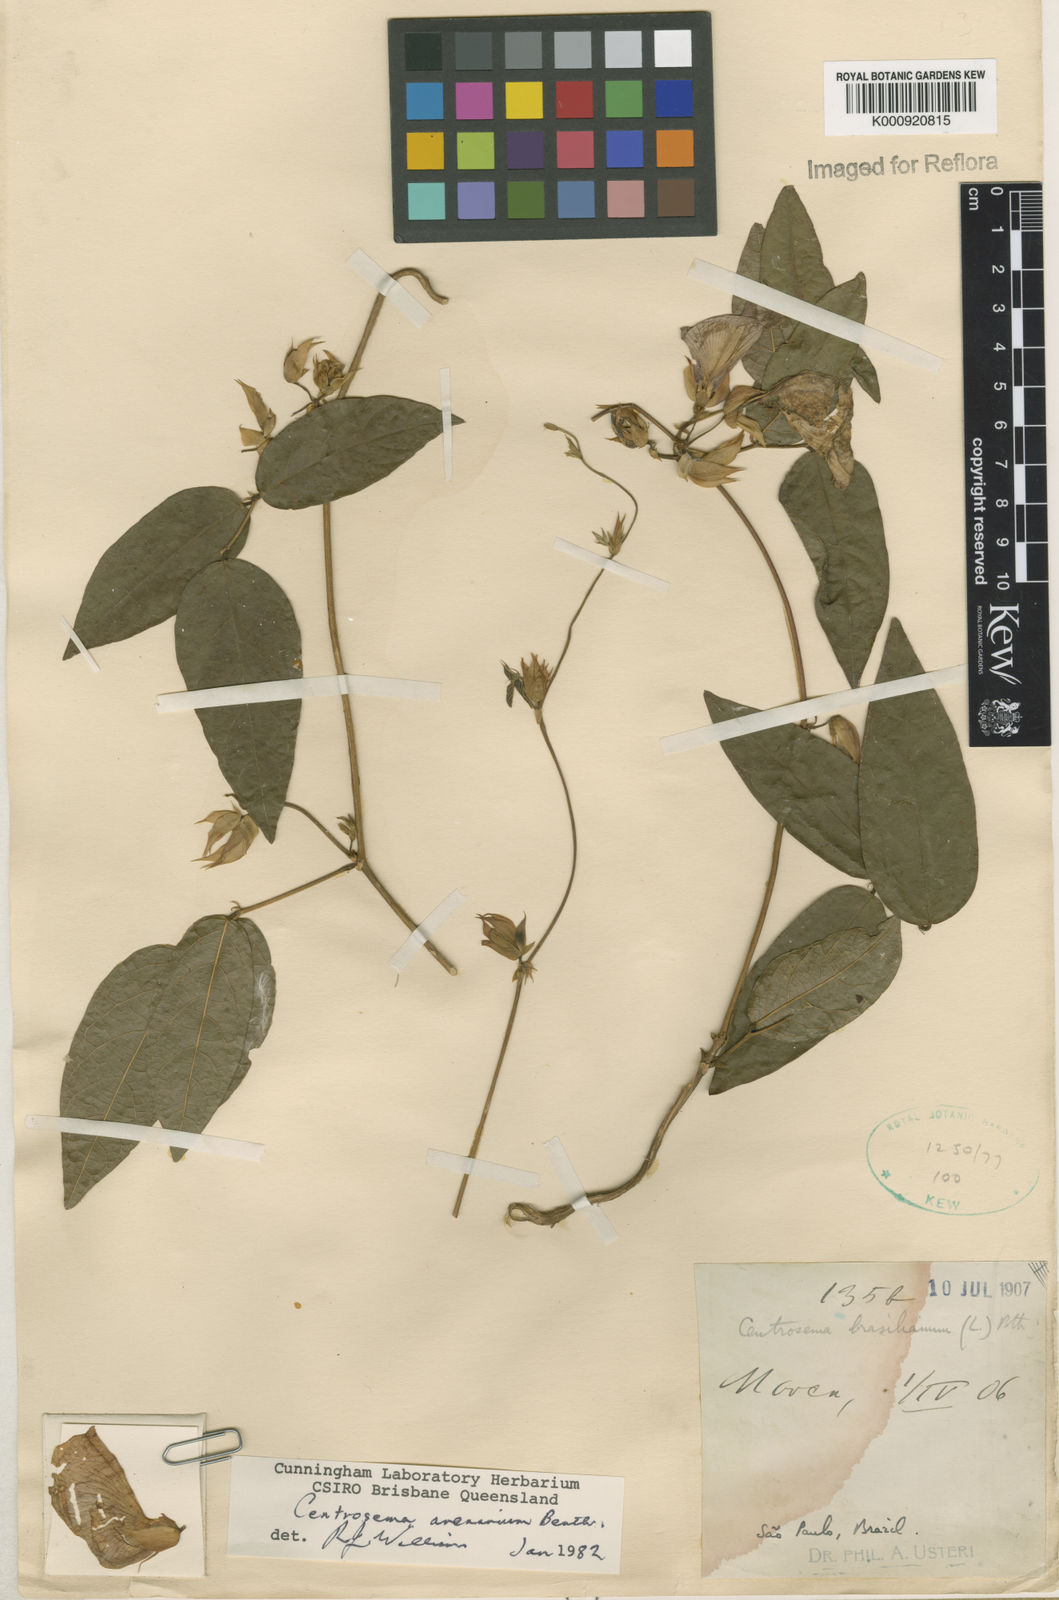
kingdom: Plantae
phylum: Tracheophyta
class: Magnoliopsida
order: Fabales
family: Fabaceae
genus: Centrosema
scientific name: Centrosema arenarium
